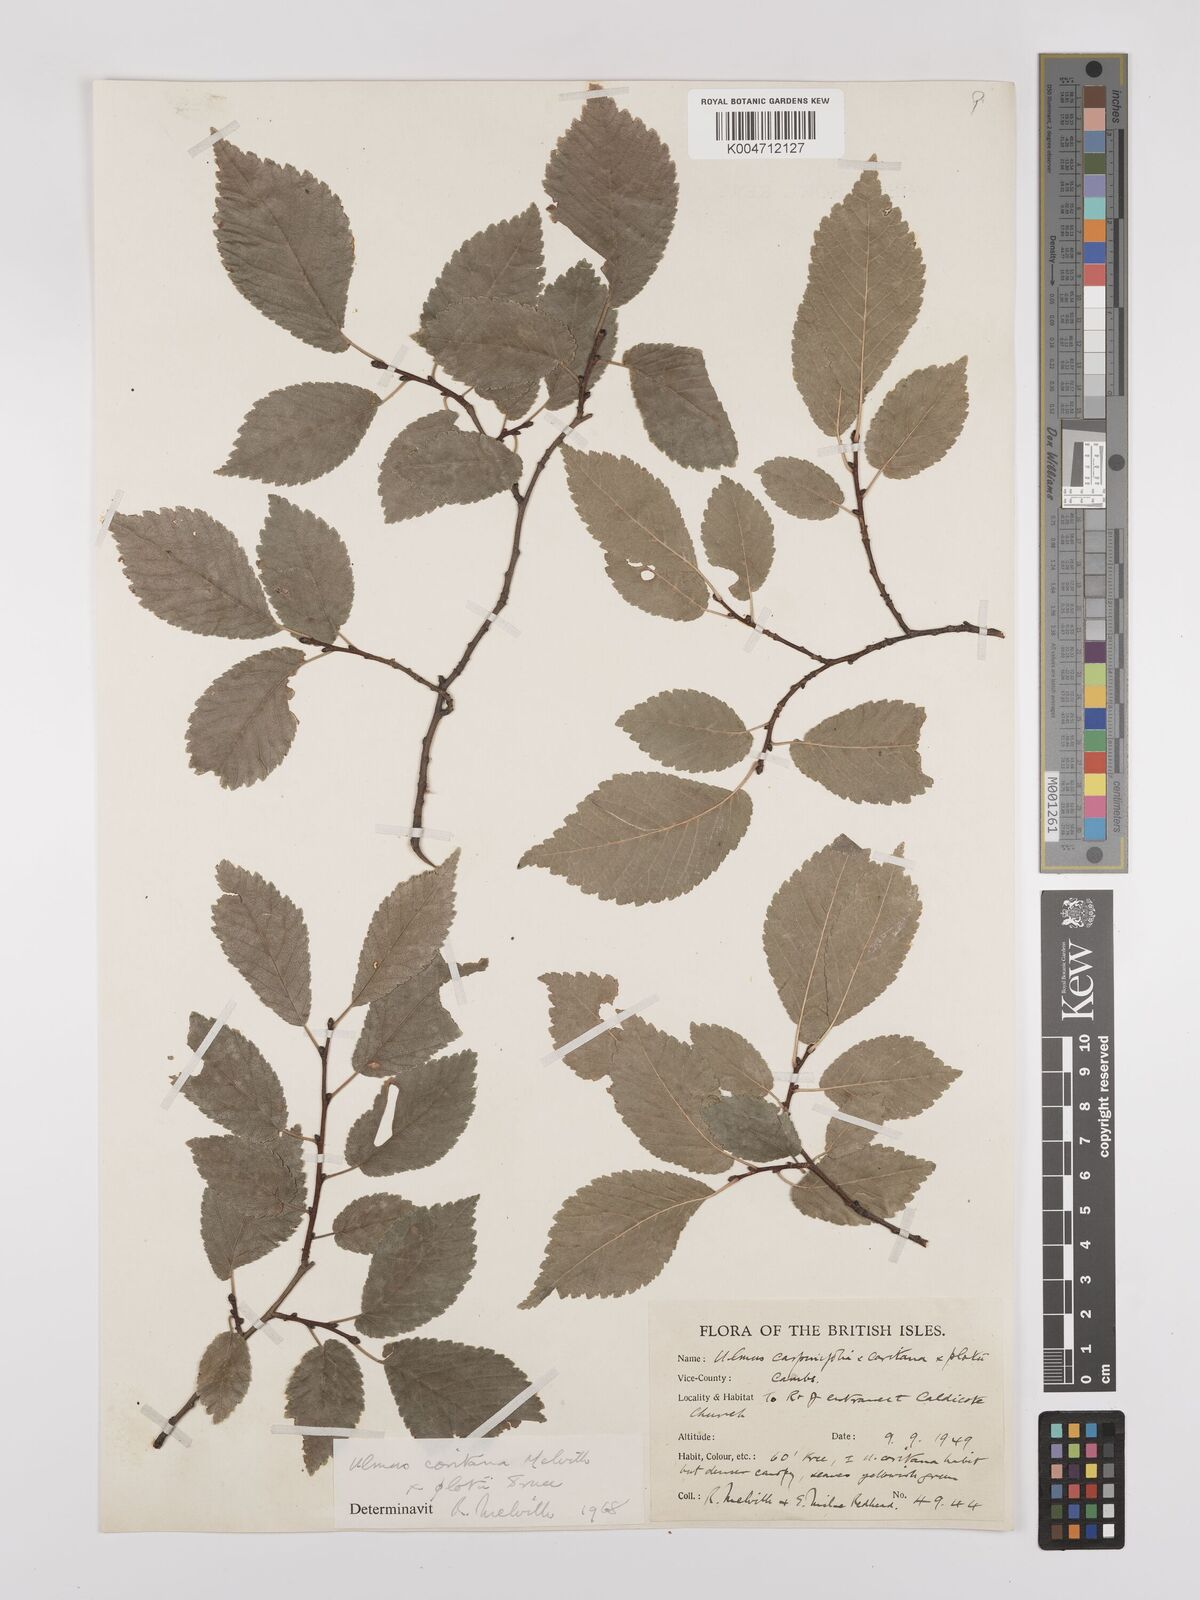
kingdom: Plantae
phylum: Tracheophyta
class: Magnoliopsida
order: Rosales
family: Ulmaceae
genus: Ulmus
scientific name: Ulmus minor
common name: Small-leaved elm
